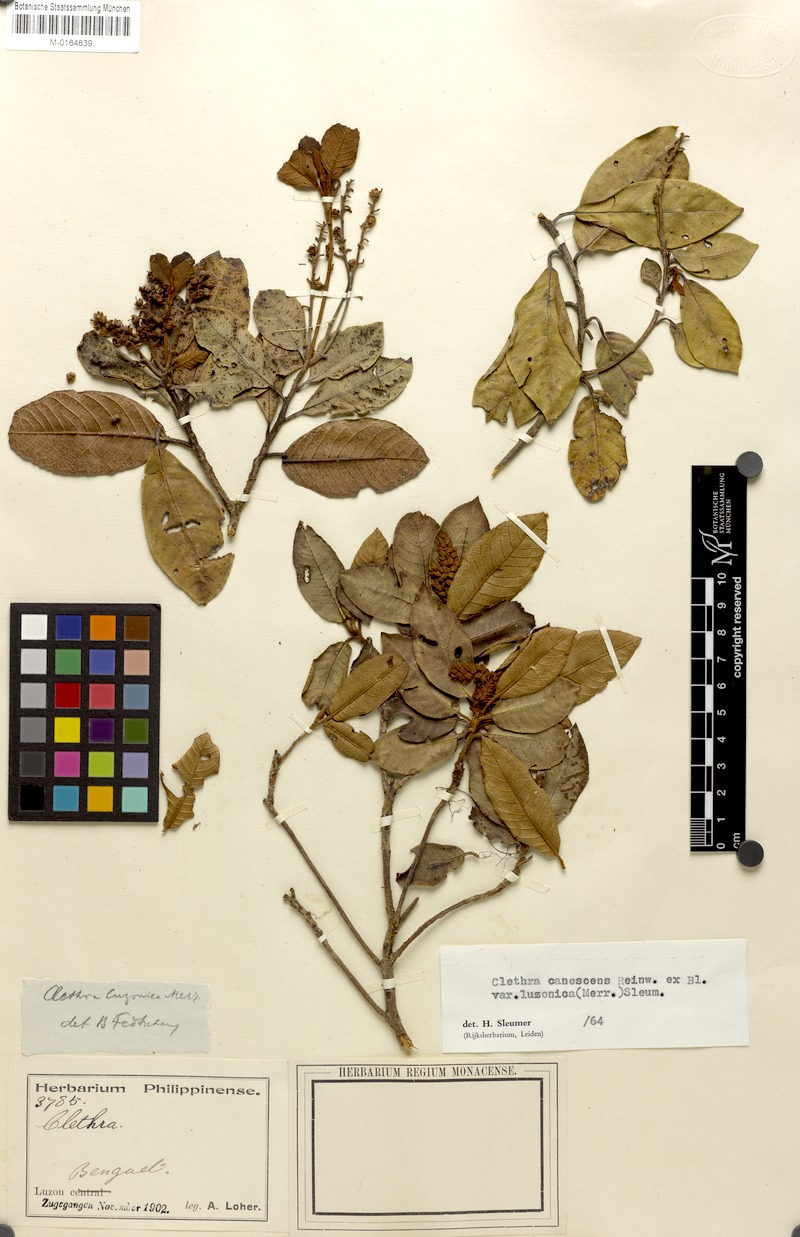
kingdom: Plantae
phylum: Tracheophyta
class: Magnoliopsida
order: Ericales
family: Clethraceae
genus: Clethra
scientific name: Clethra canescens
